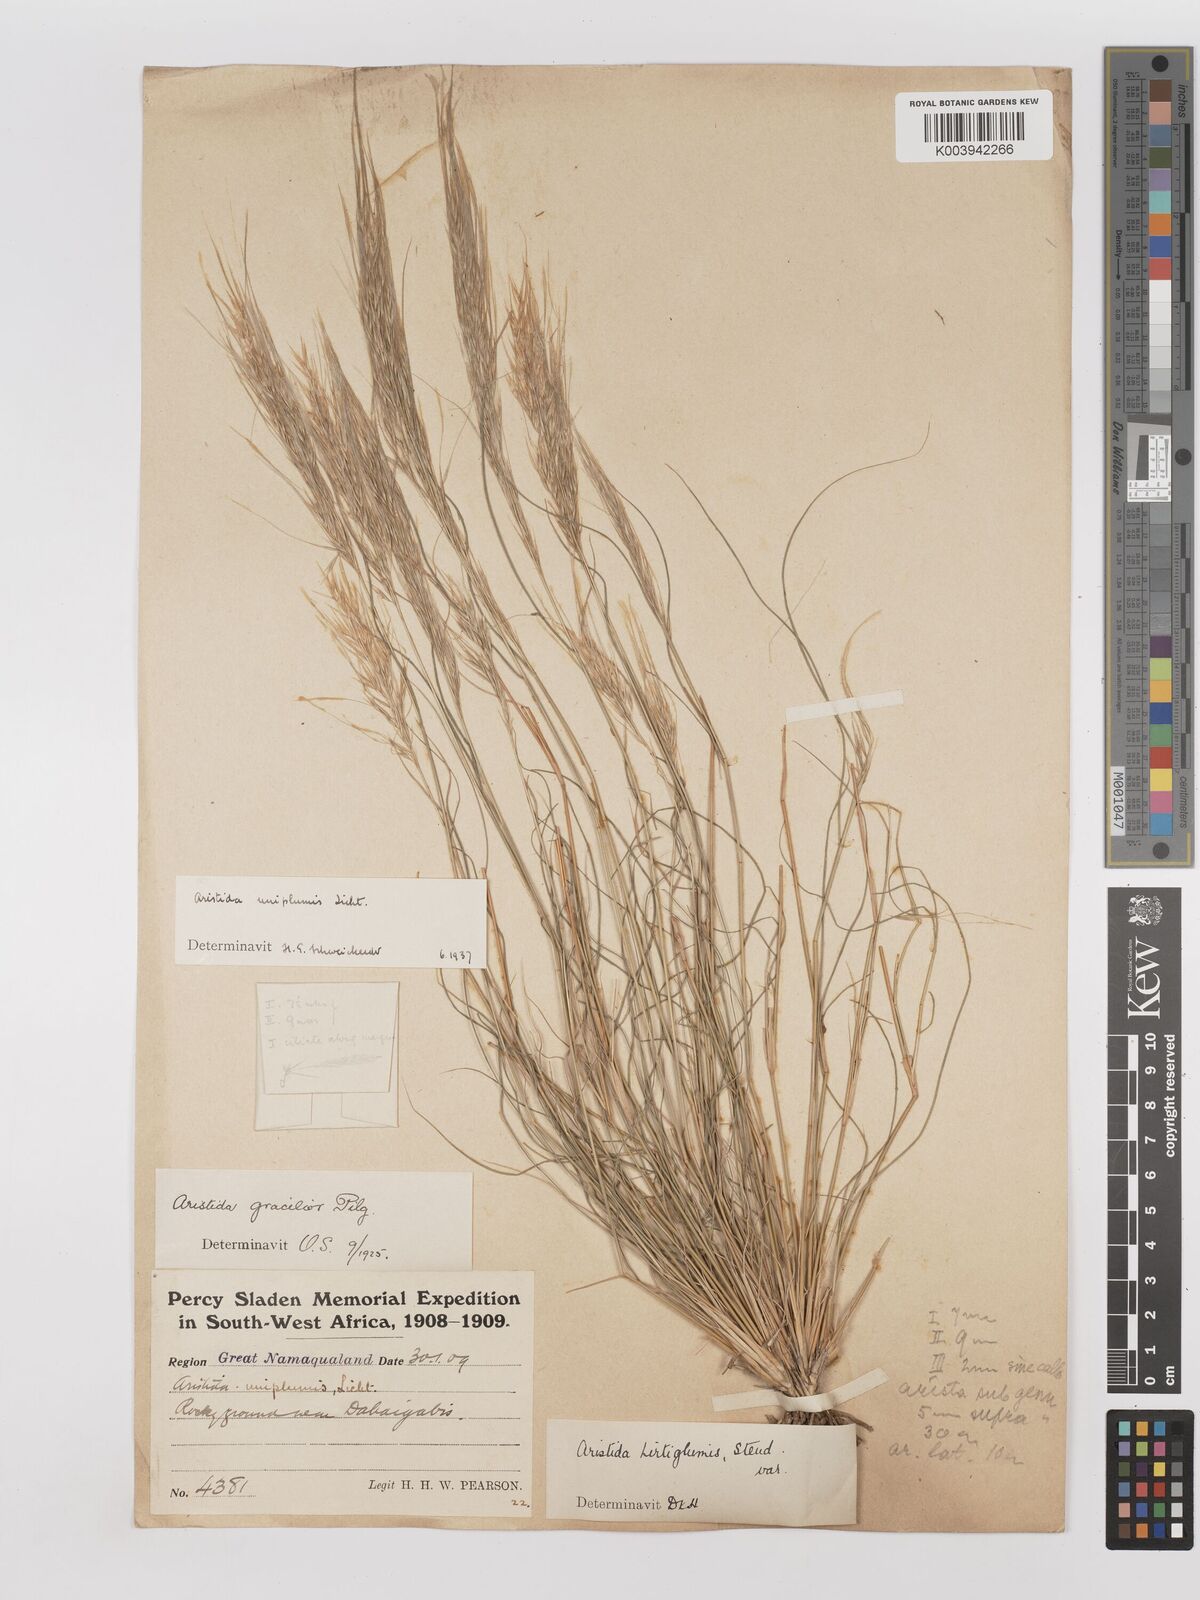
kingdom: Plantae
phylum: Tracheophyta
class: Liliopsida
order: Poales
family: Poaceae
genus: Stipagrostis
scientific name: Stipagrostis uniplumis
